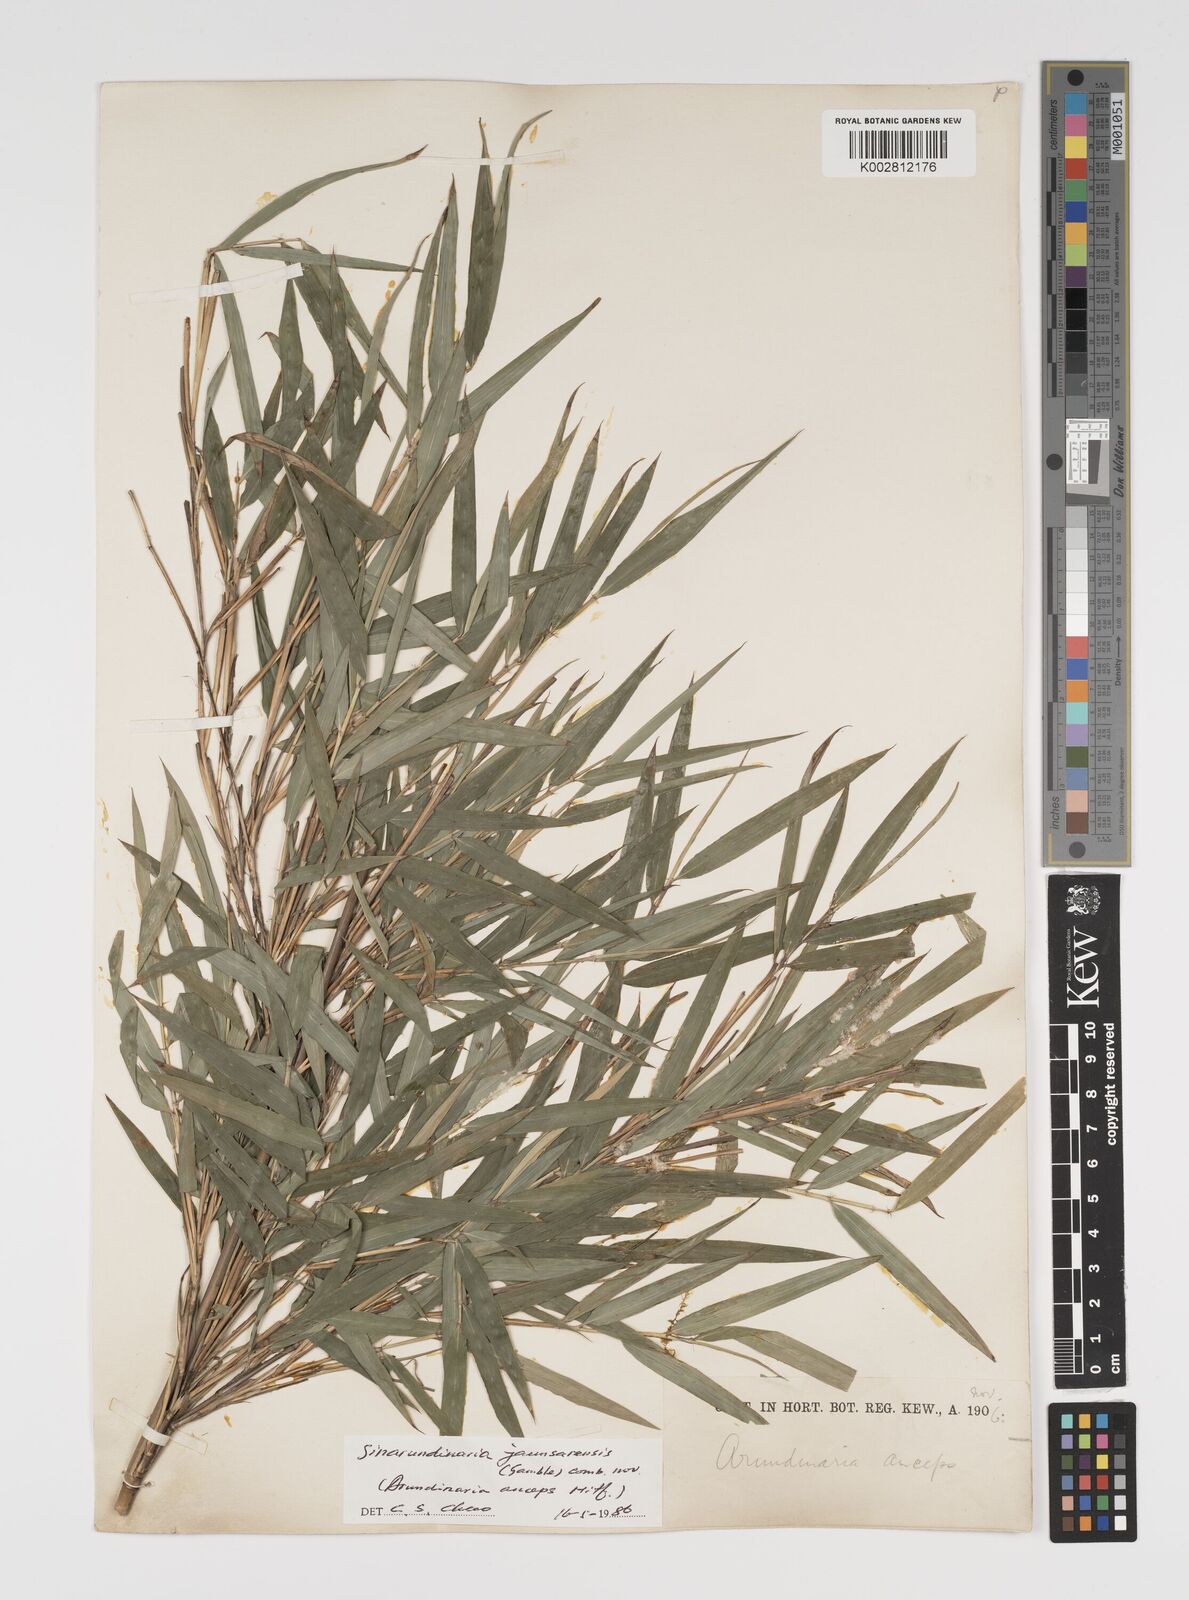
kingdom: Plantae
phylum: Tracheophyta
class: Liliopsida
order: Poales
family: Poaceae
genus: Yushania
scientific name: Yushania anceps
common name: Indian fountain-bamboo
